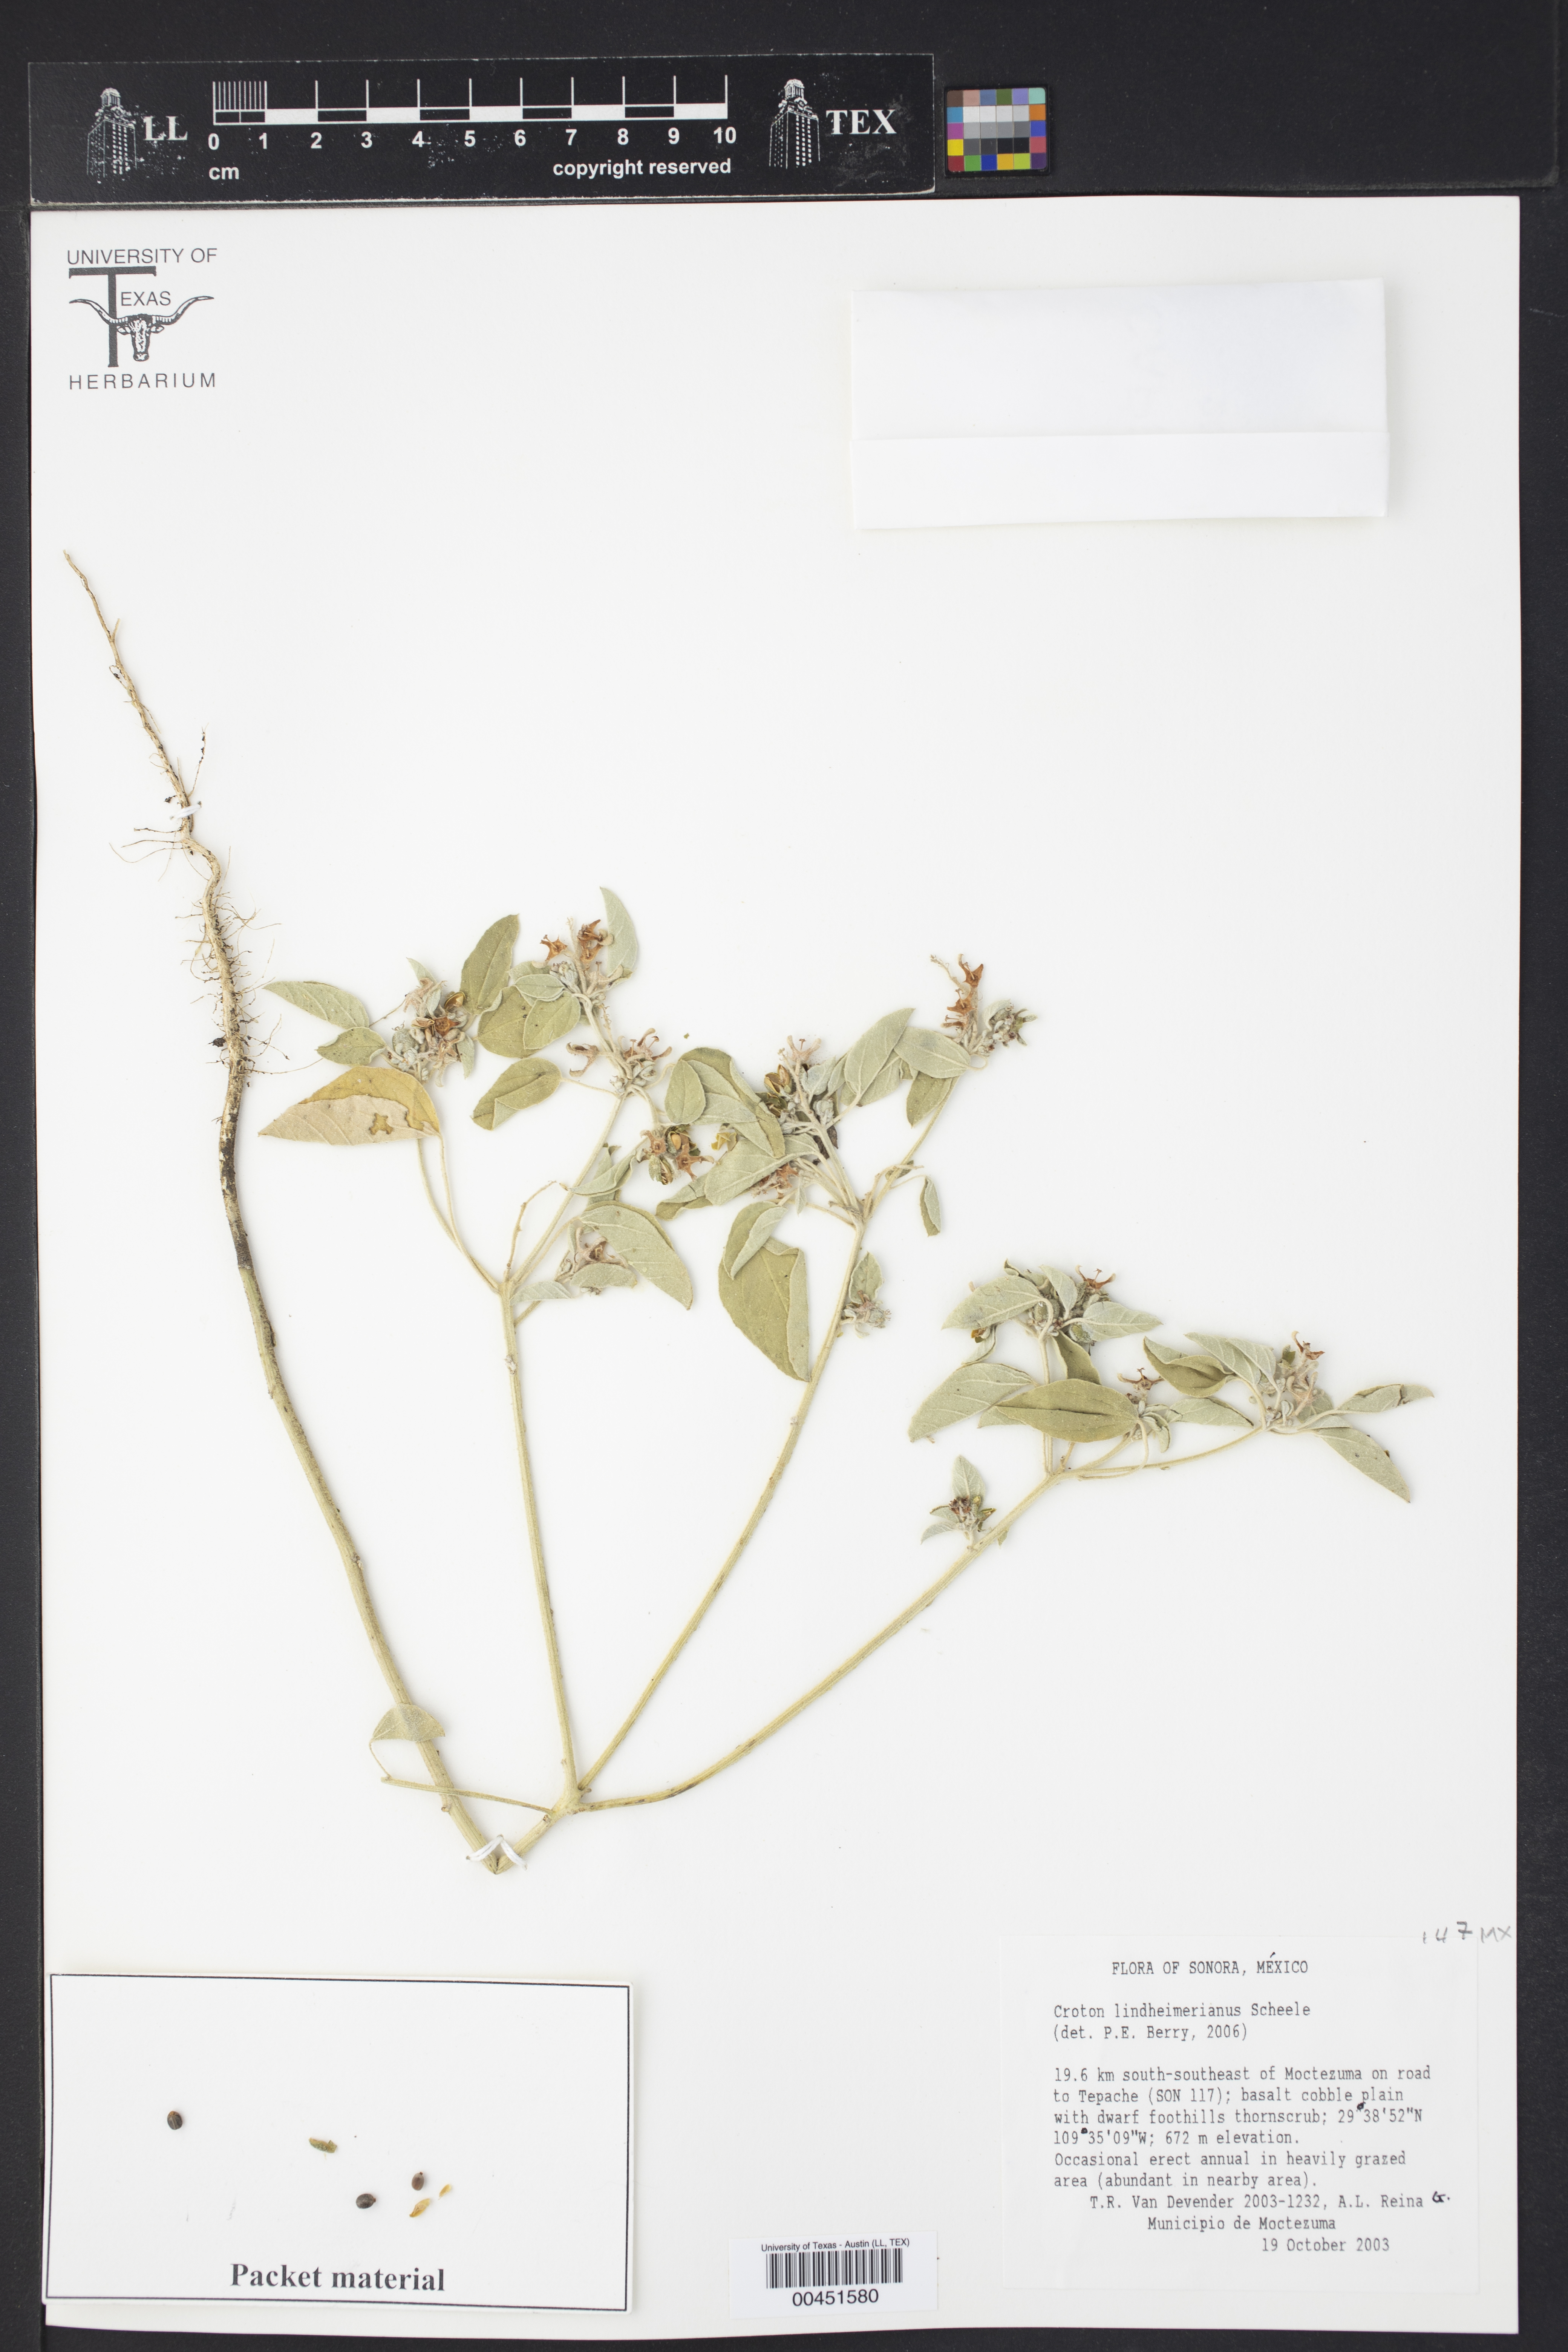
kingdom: Plantae
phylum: Tracheophyta
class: Magnoliopsida
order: Malpighiales
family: Euphorbiaceae
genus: Croton
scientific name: Croton lindheimerianus
